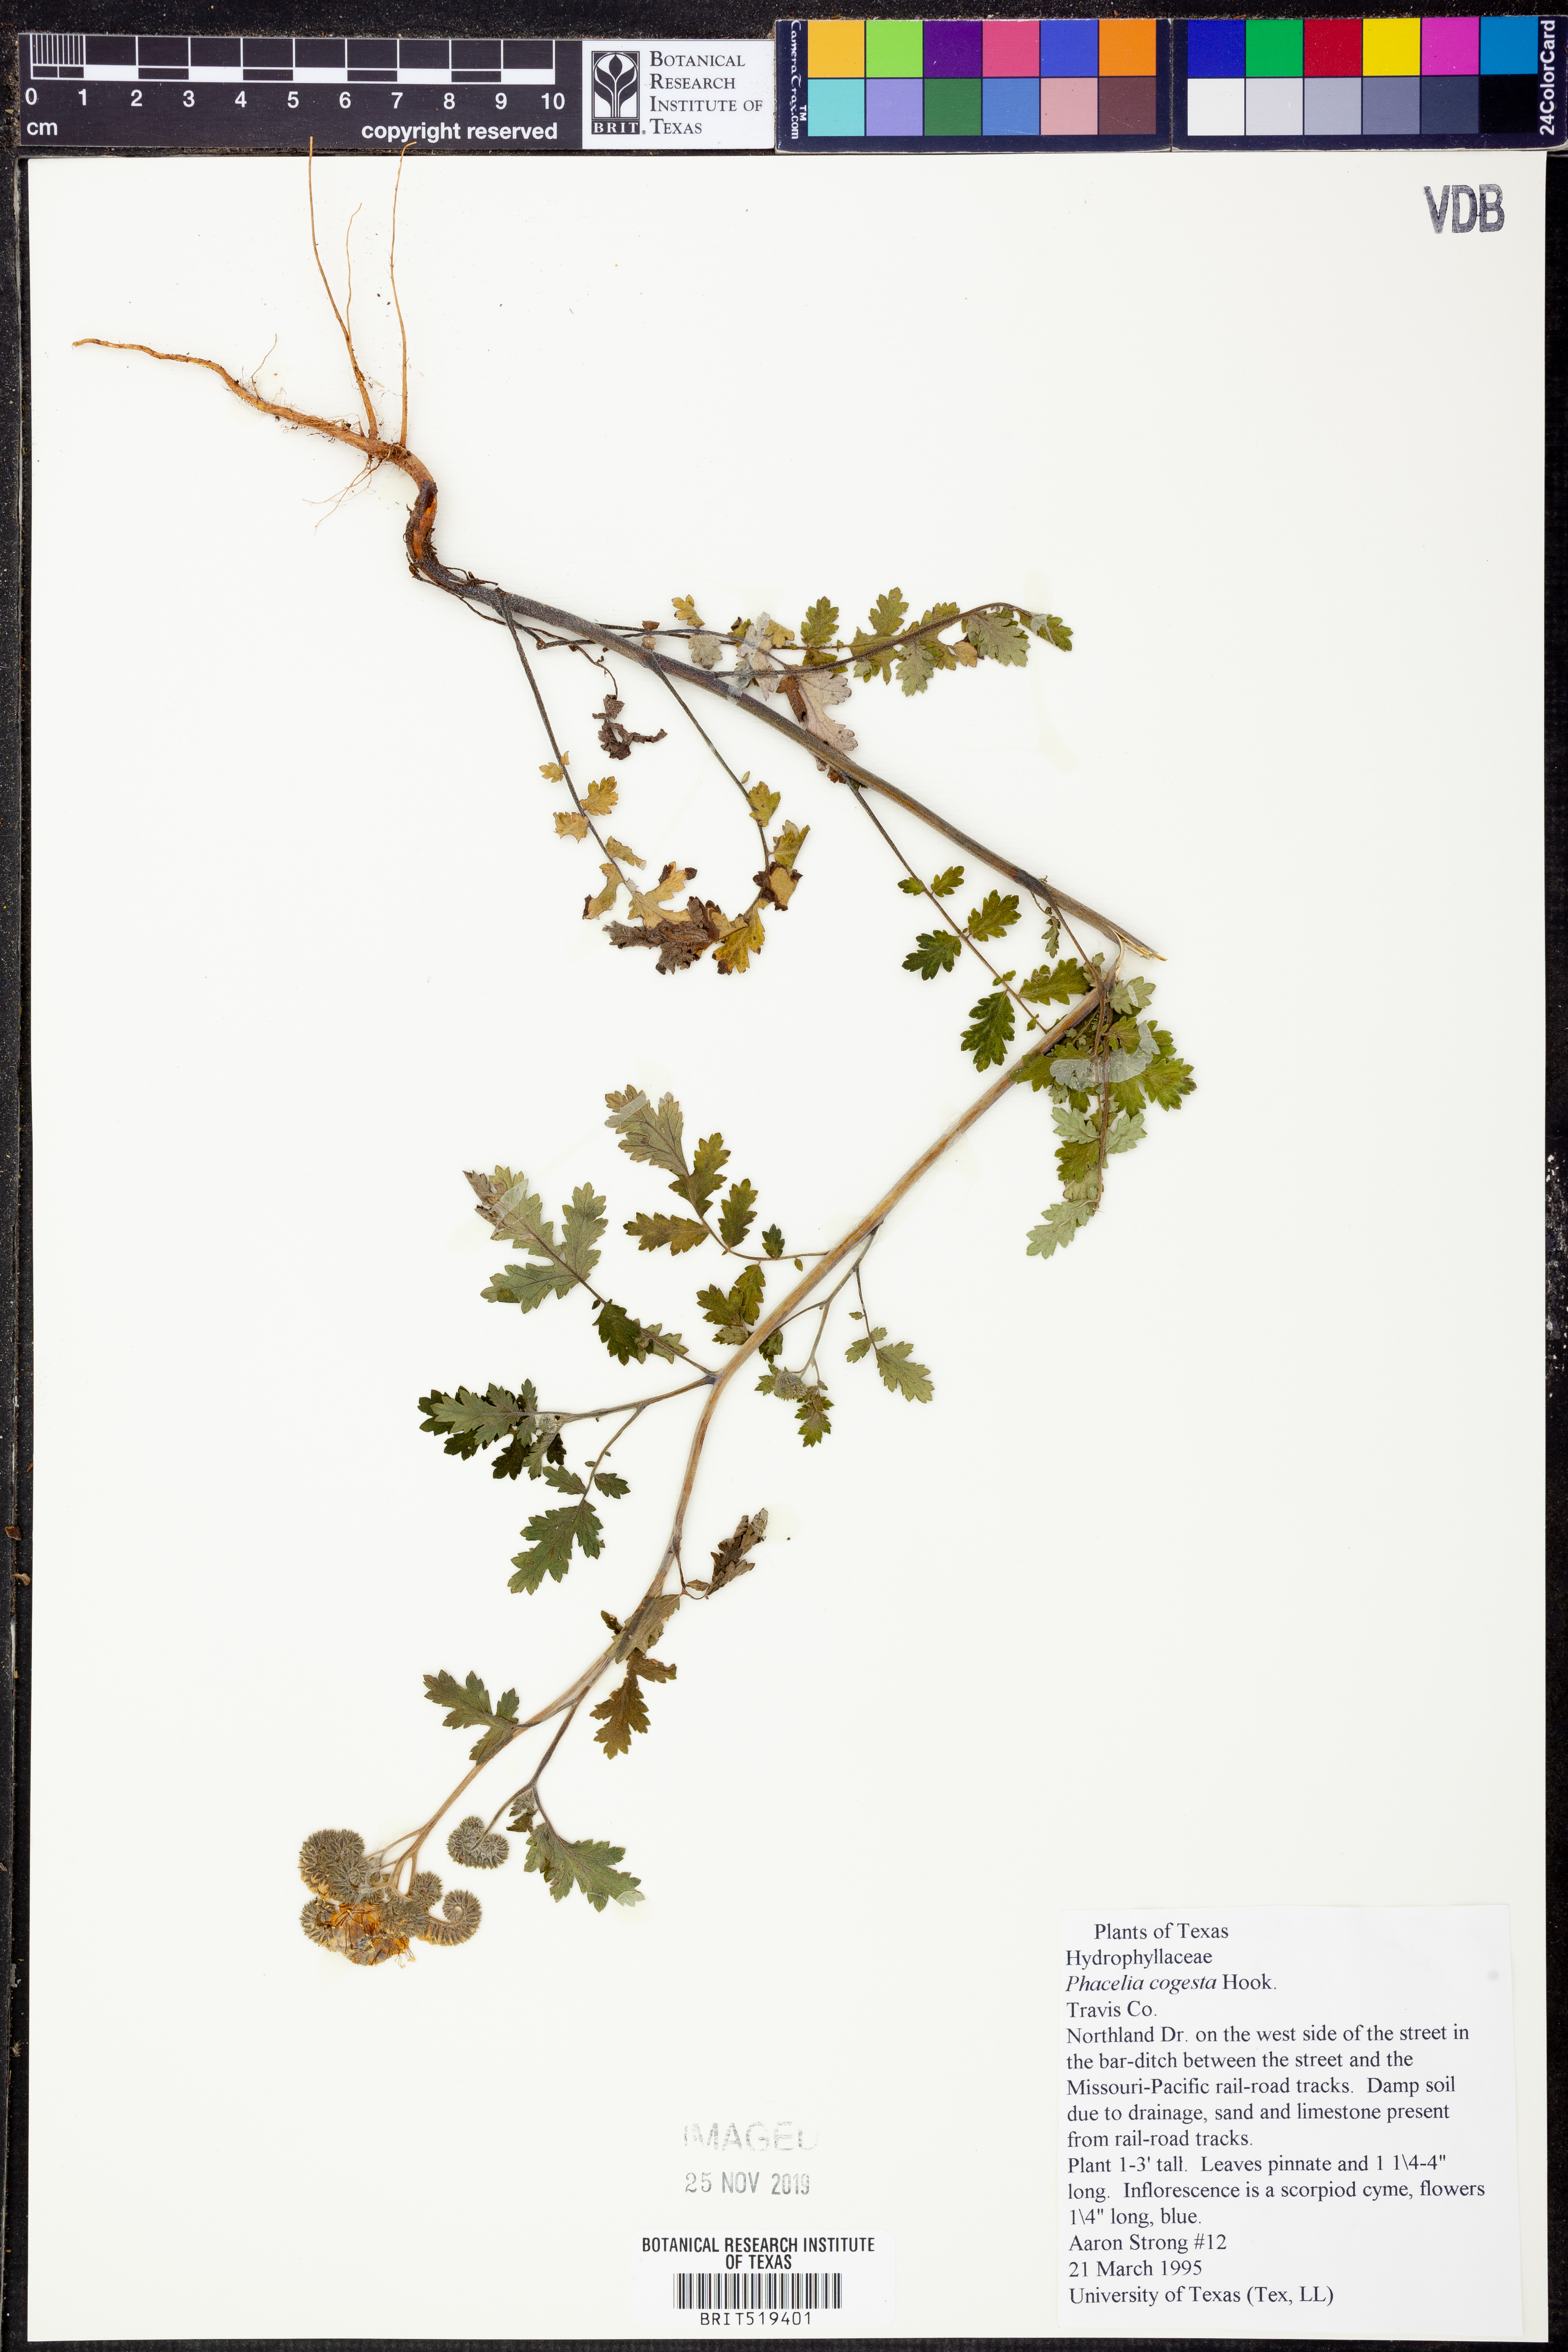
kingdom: Plantae
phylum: Tracheophyta
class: Magnoliopsida
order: Boraginales
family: Hydrophyllaceae
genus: Phacelia
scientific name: Phacelia congesta
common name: Blue curls
